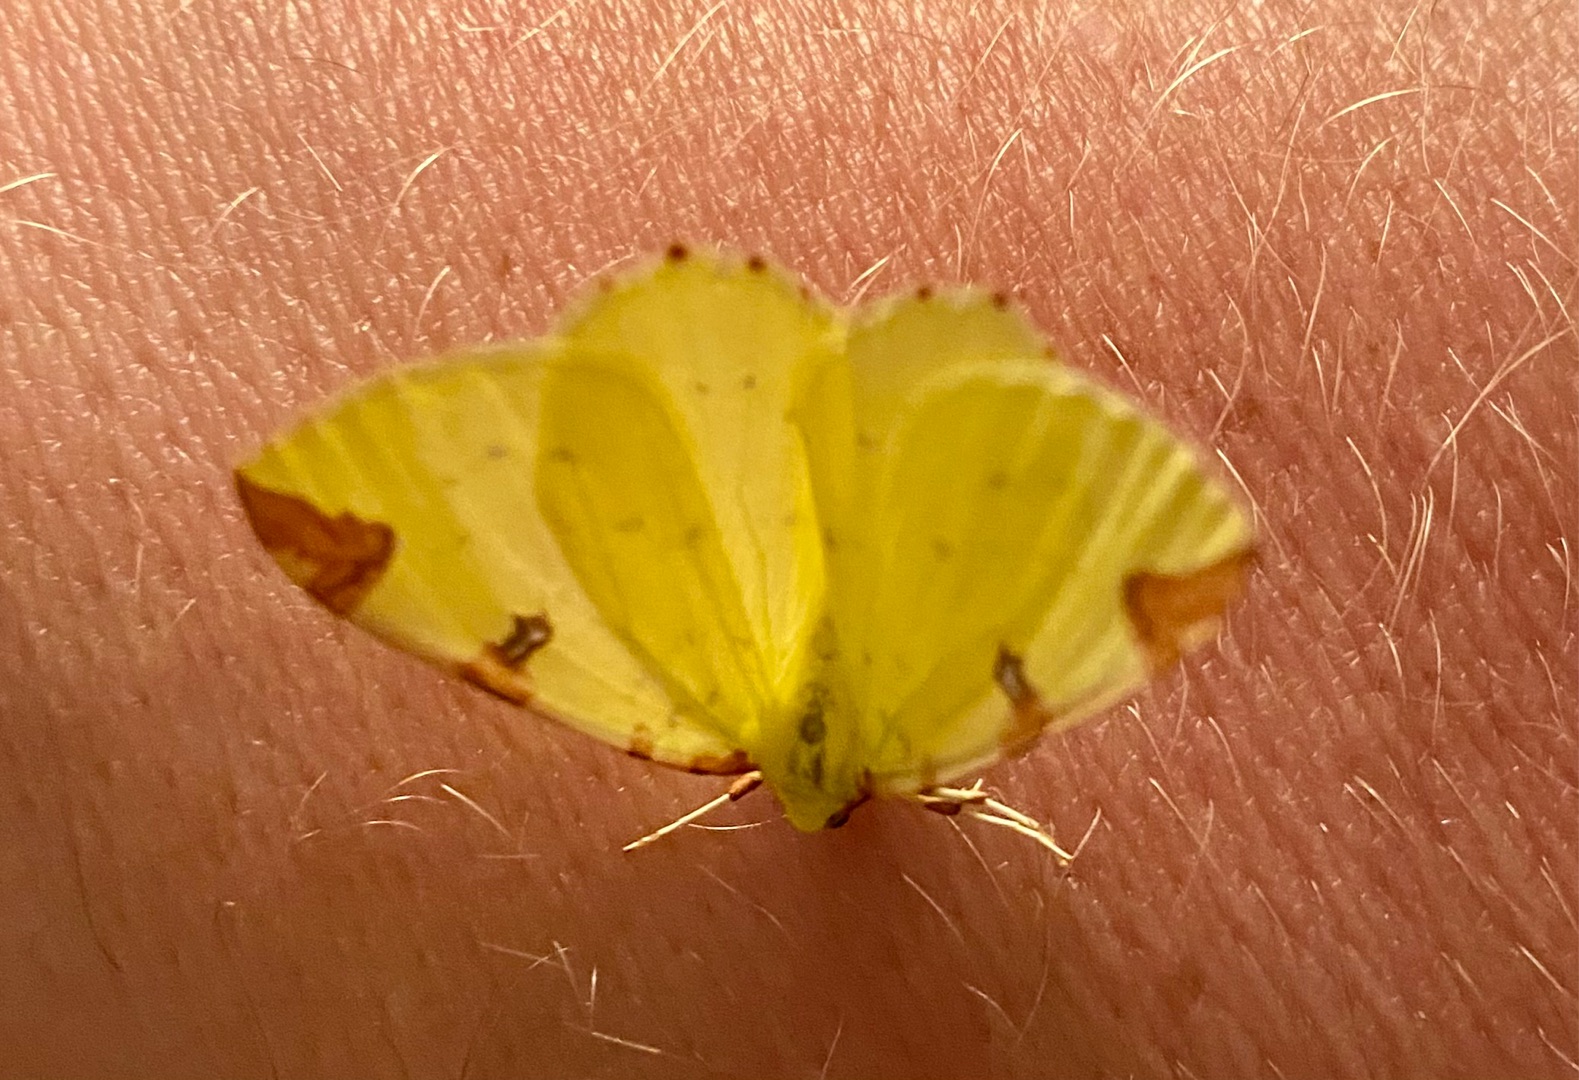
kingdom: Animalia
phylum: Arthropoda
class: Insecta
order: Lepidoptera
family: Geometridae
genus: Opisthograptis
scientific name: Opisthograptis luteolata
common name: Citronmåler
